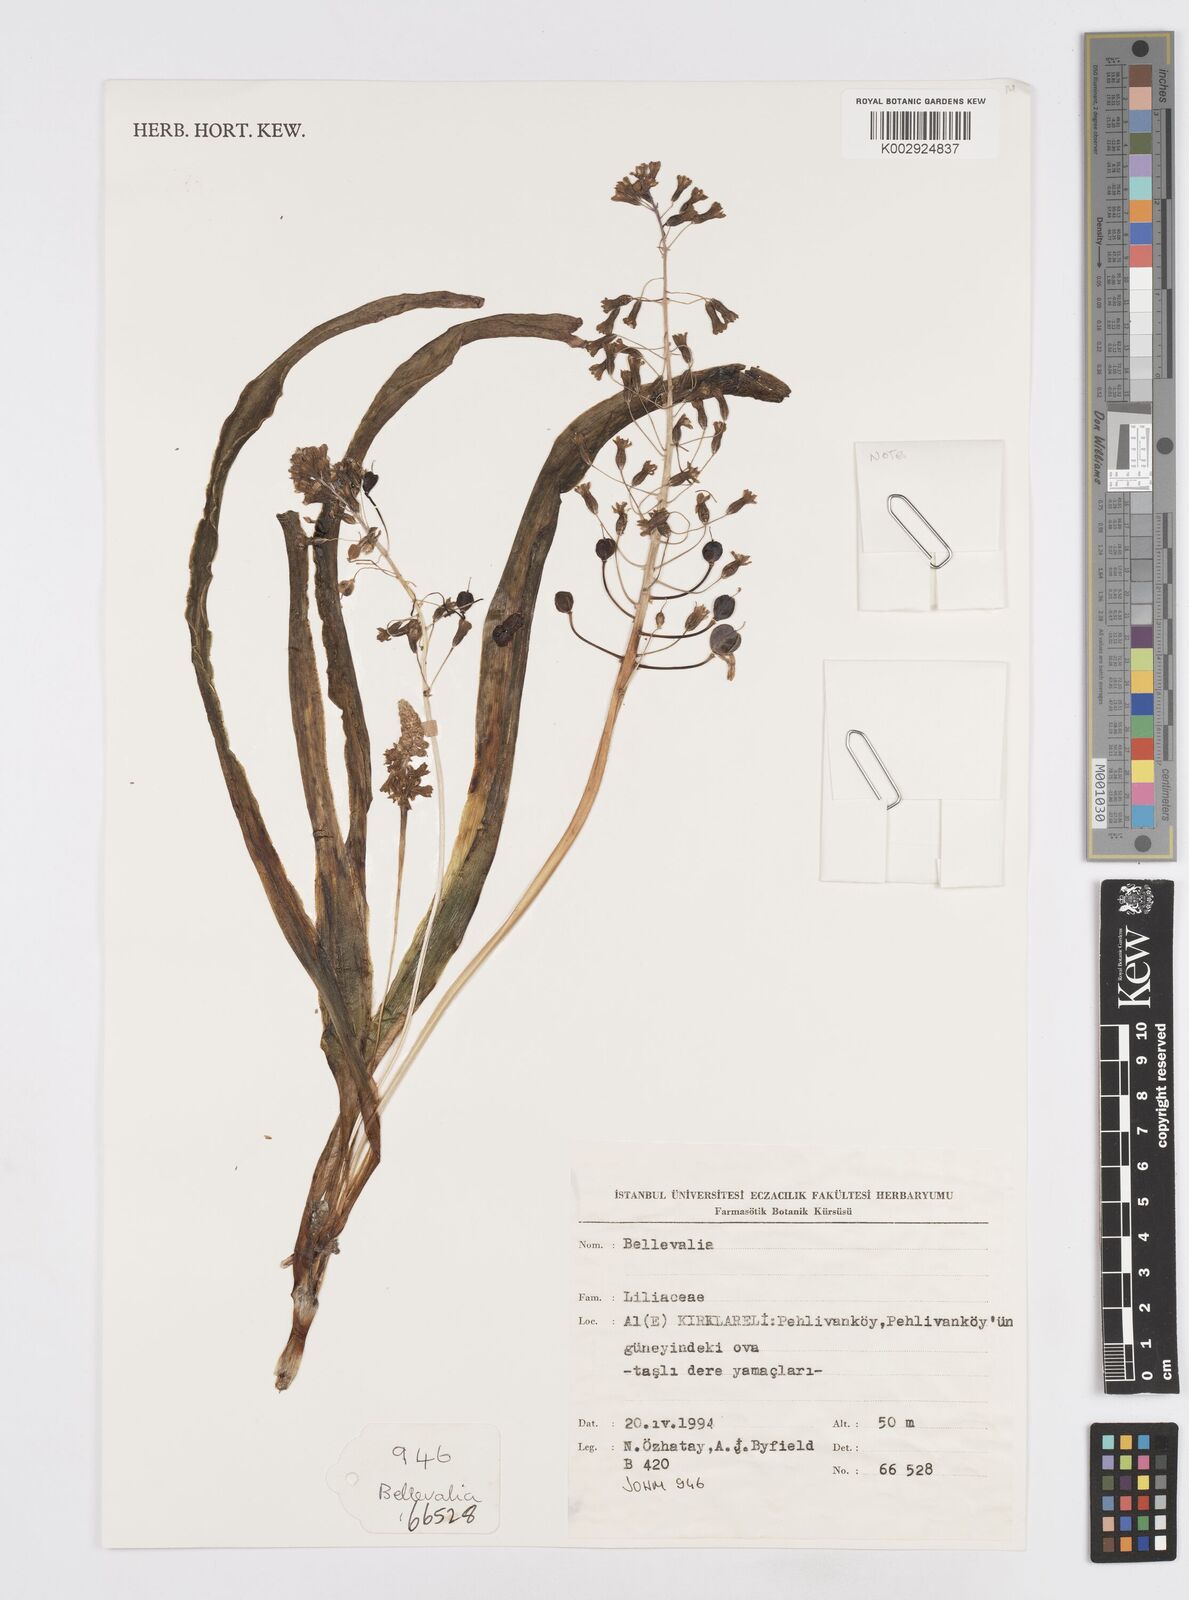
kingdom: Plantae
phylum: Tracheophyta
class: Liliopsida
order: Asparagales
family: Asparagaceae
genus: Bellevalia
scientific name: Bellevalia
